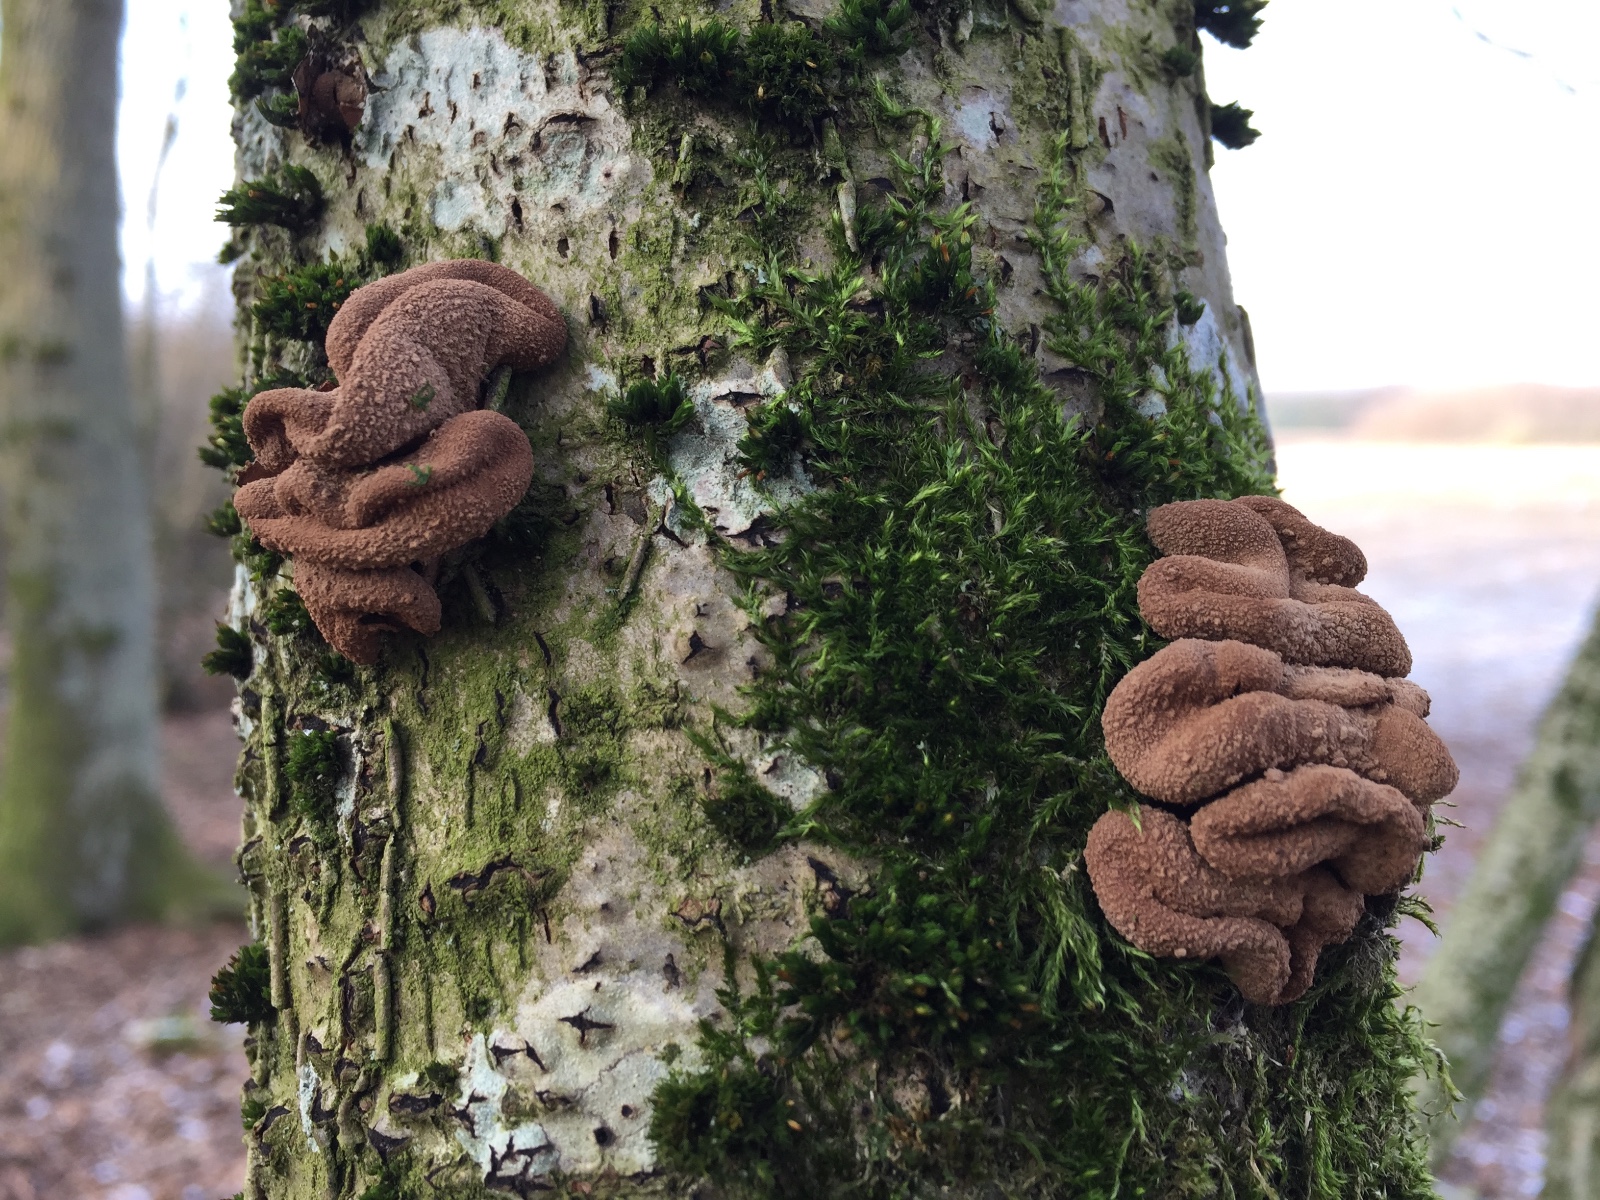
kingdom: Fungi
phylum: Ascomycota
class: Leotiomycetes
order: Helotiales
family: Cenangiaceae
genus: Encoelia
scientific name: Encoelia furfuracea
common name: hassel-læderskive
